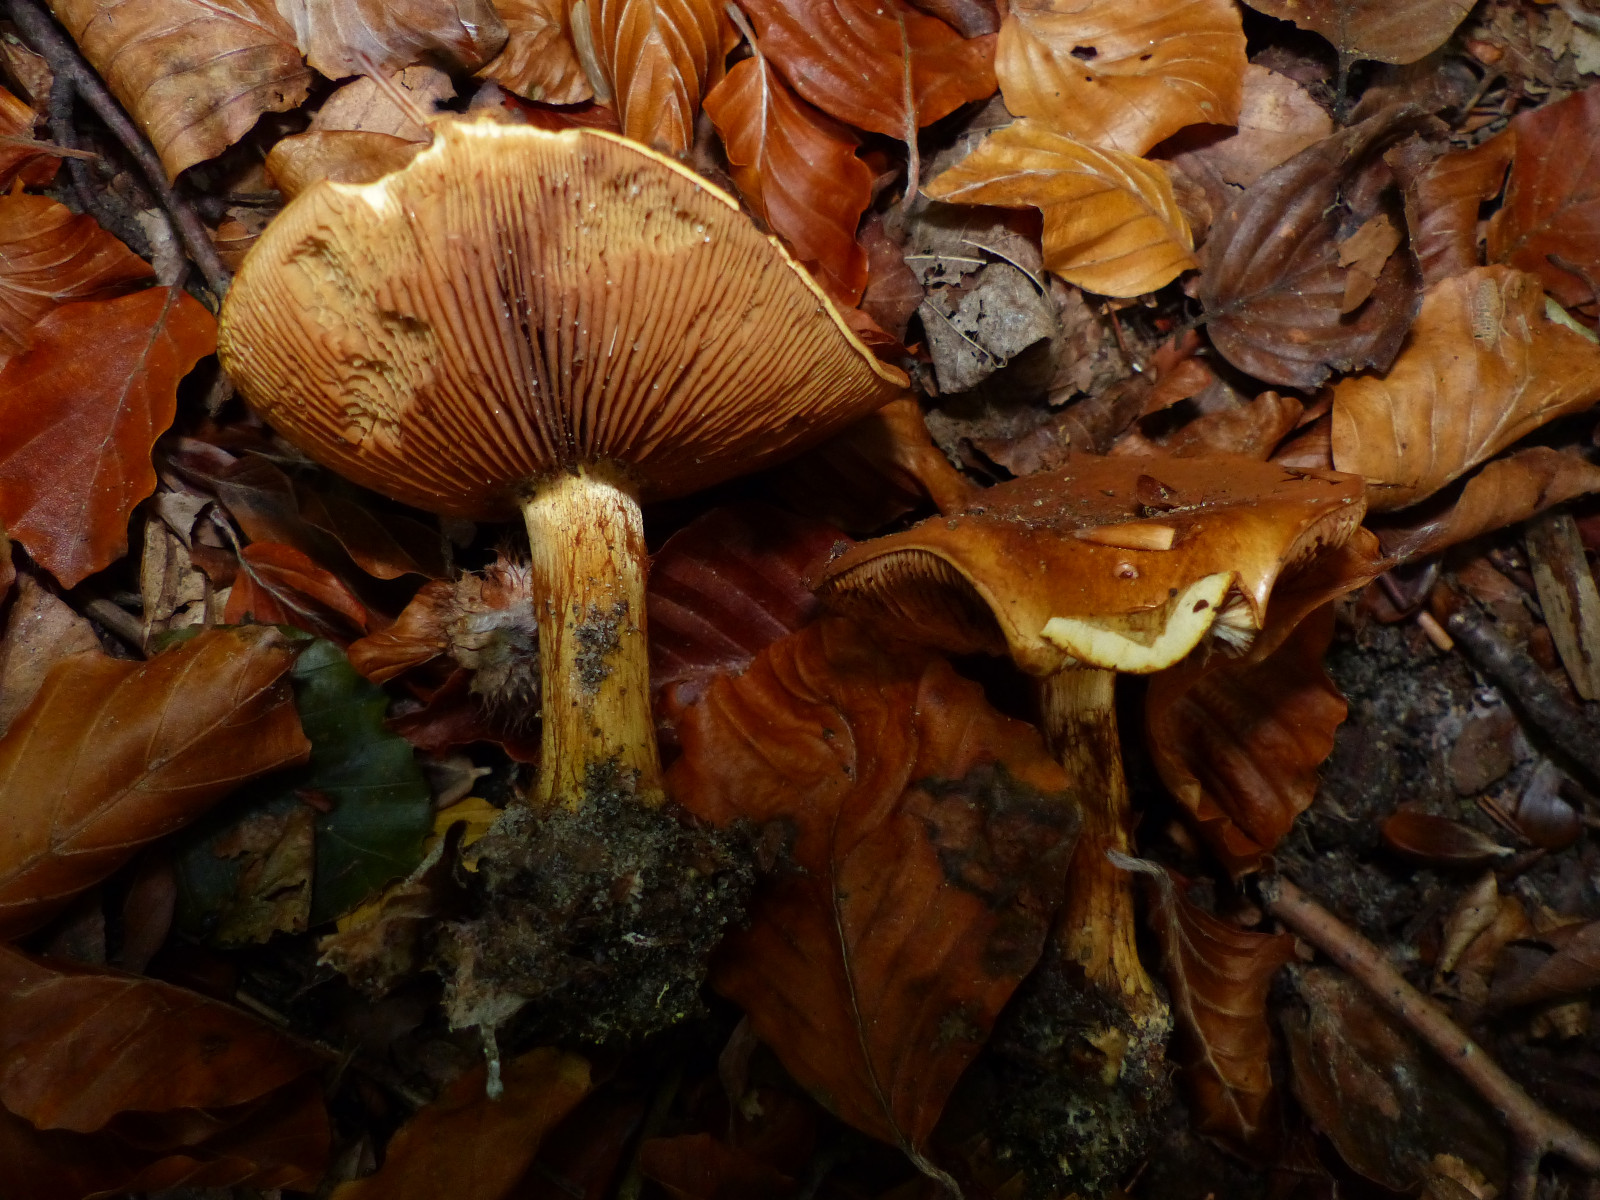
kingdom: Fungi
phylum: Basidiomycota
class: Agaricomycetes
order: Agaricales
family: Cortinariaceae
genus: Calonarius
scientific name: Calonarius alcalinophilus
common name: gyldenbrun slørhat
